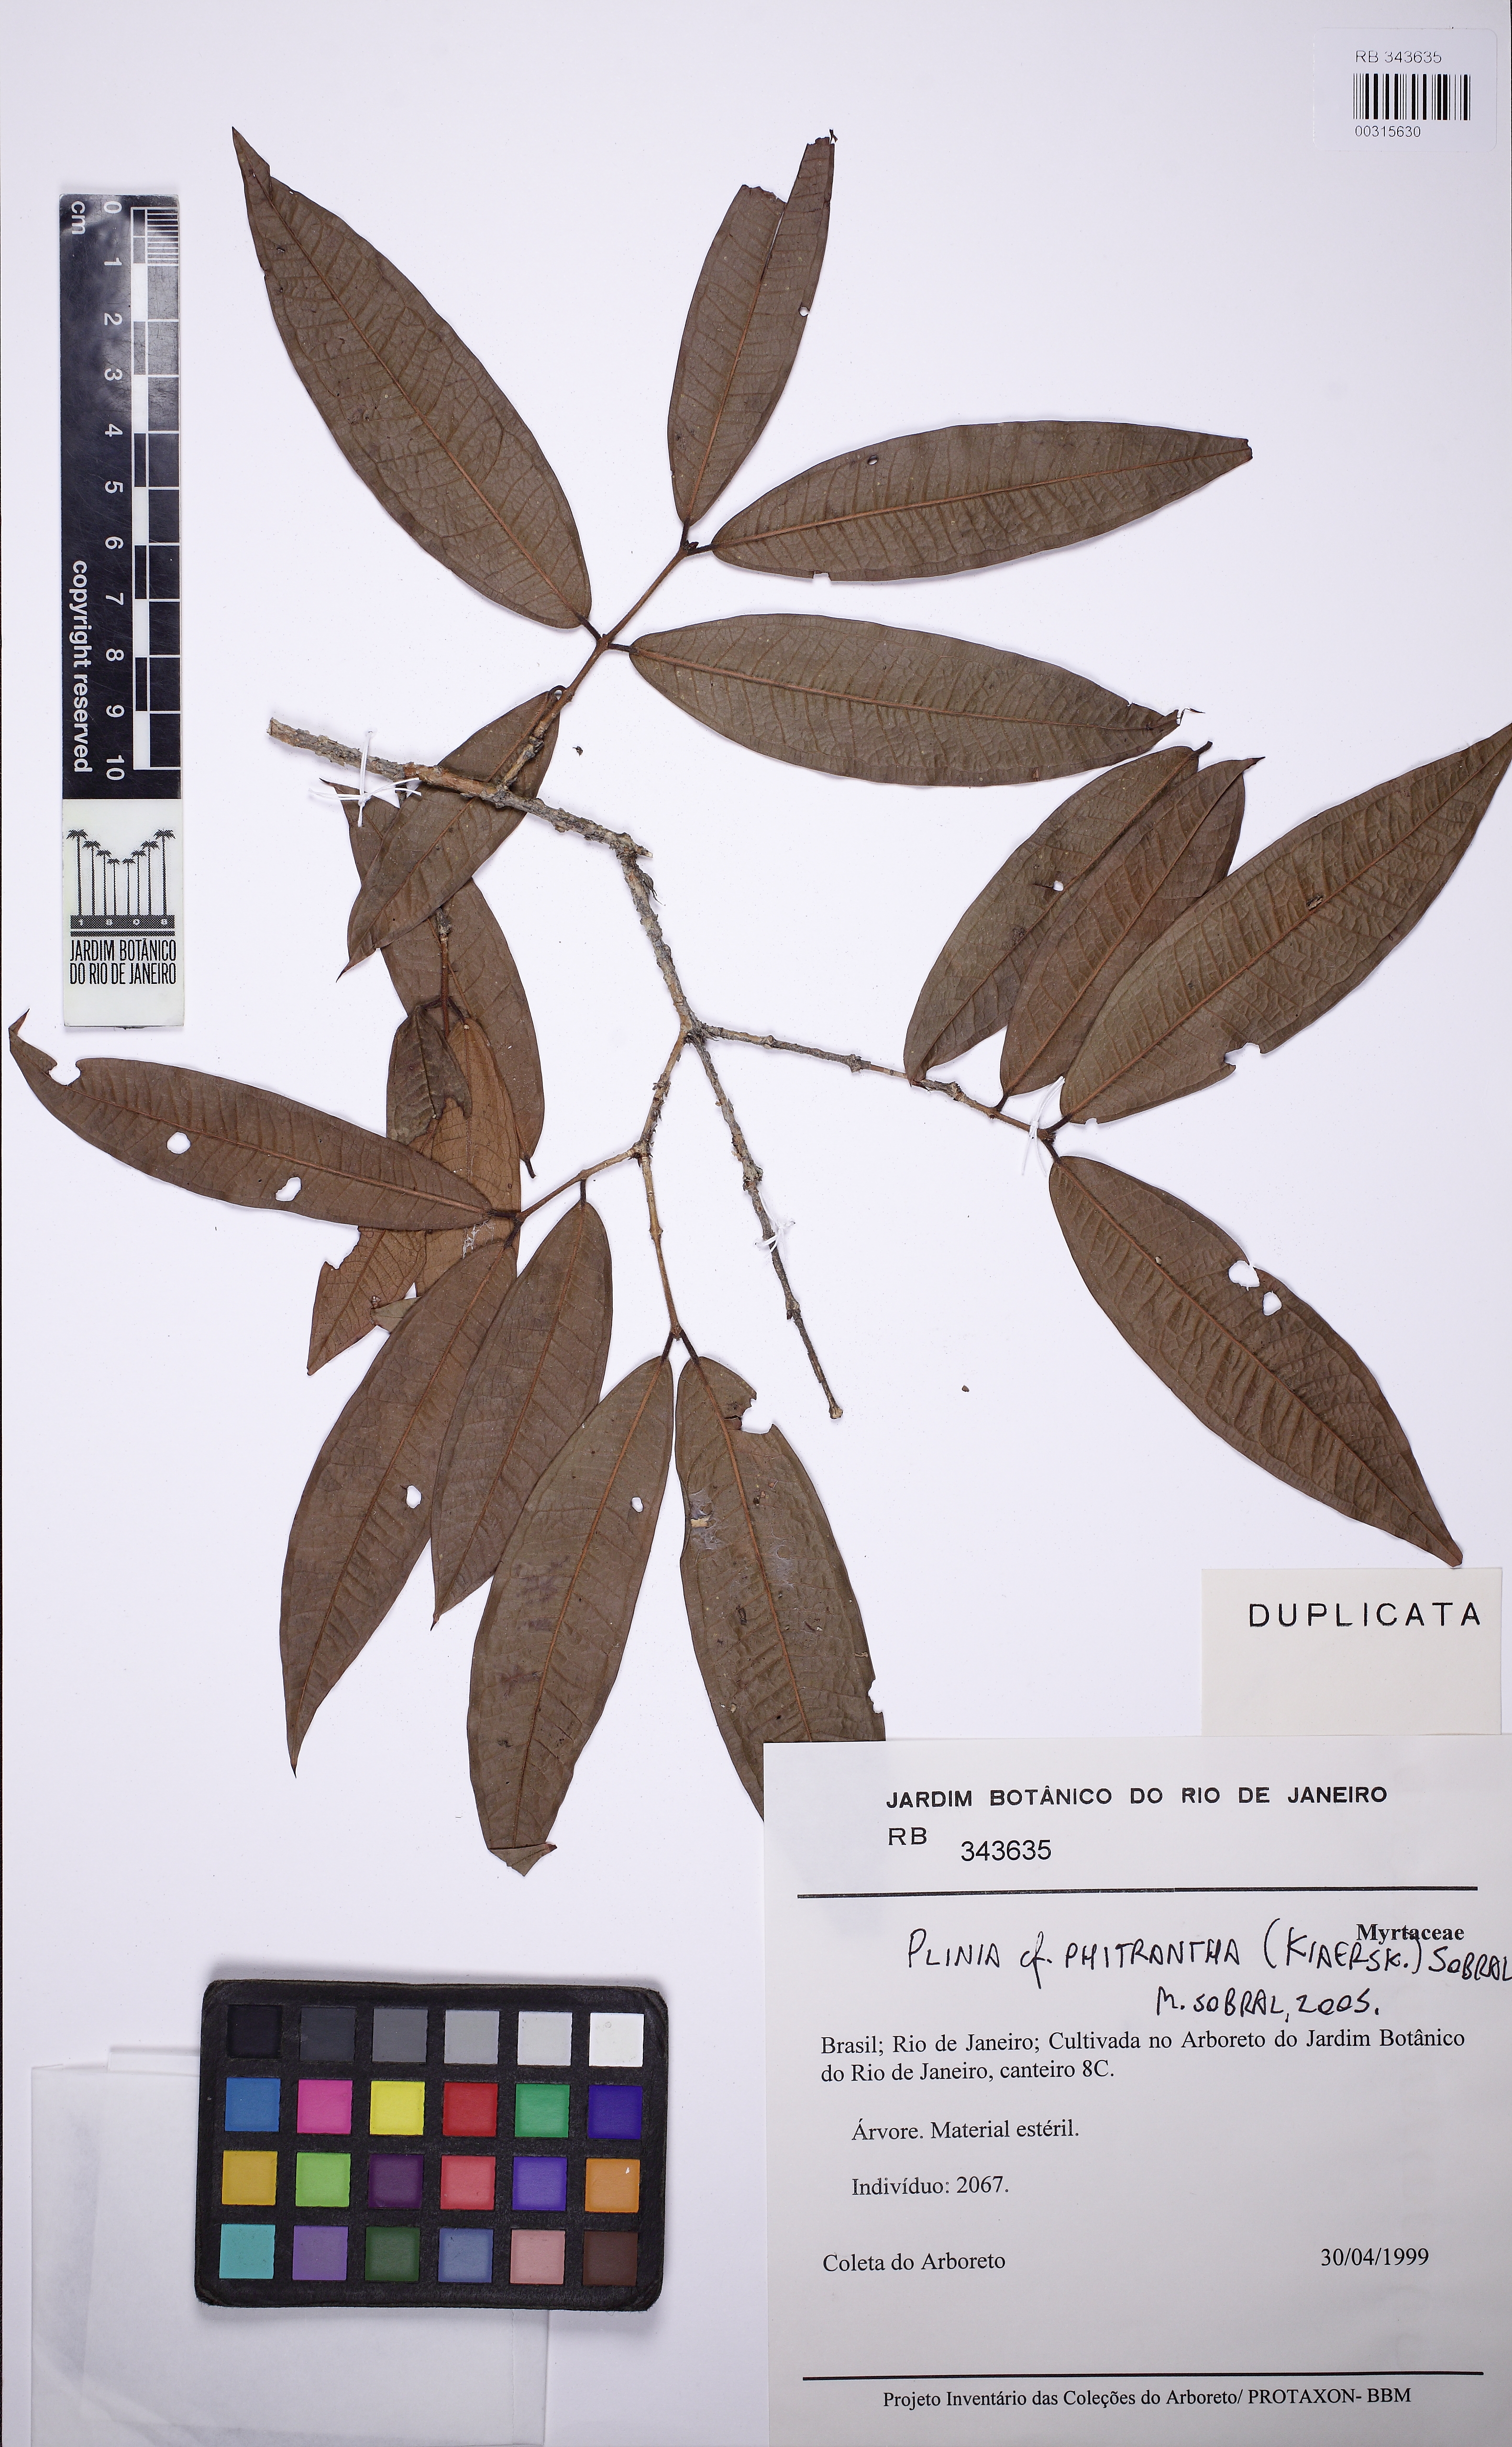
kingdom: Plantae
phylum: Tracheophyta
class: Magnoliopsida
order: Myrtales
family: Myrtaceae
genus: Plinia
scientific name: Plinia phitrantha
